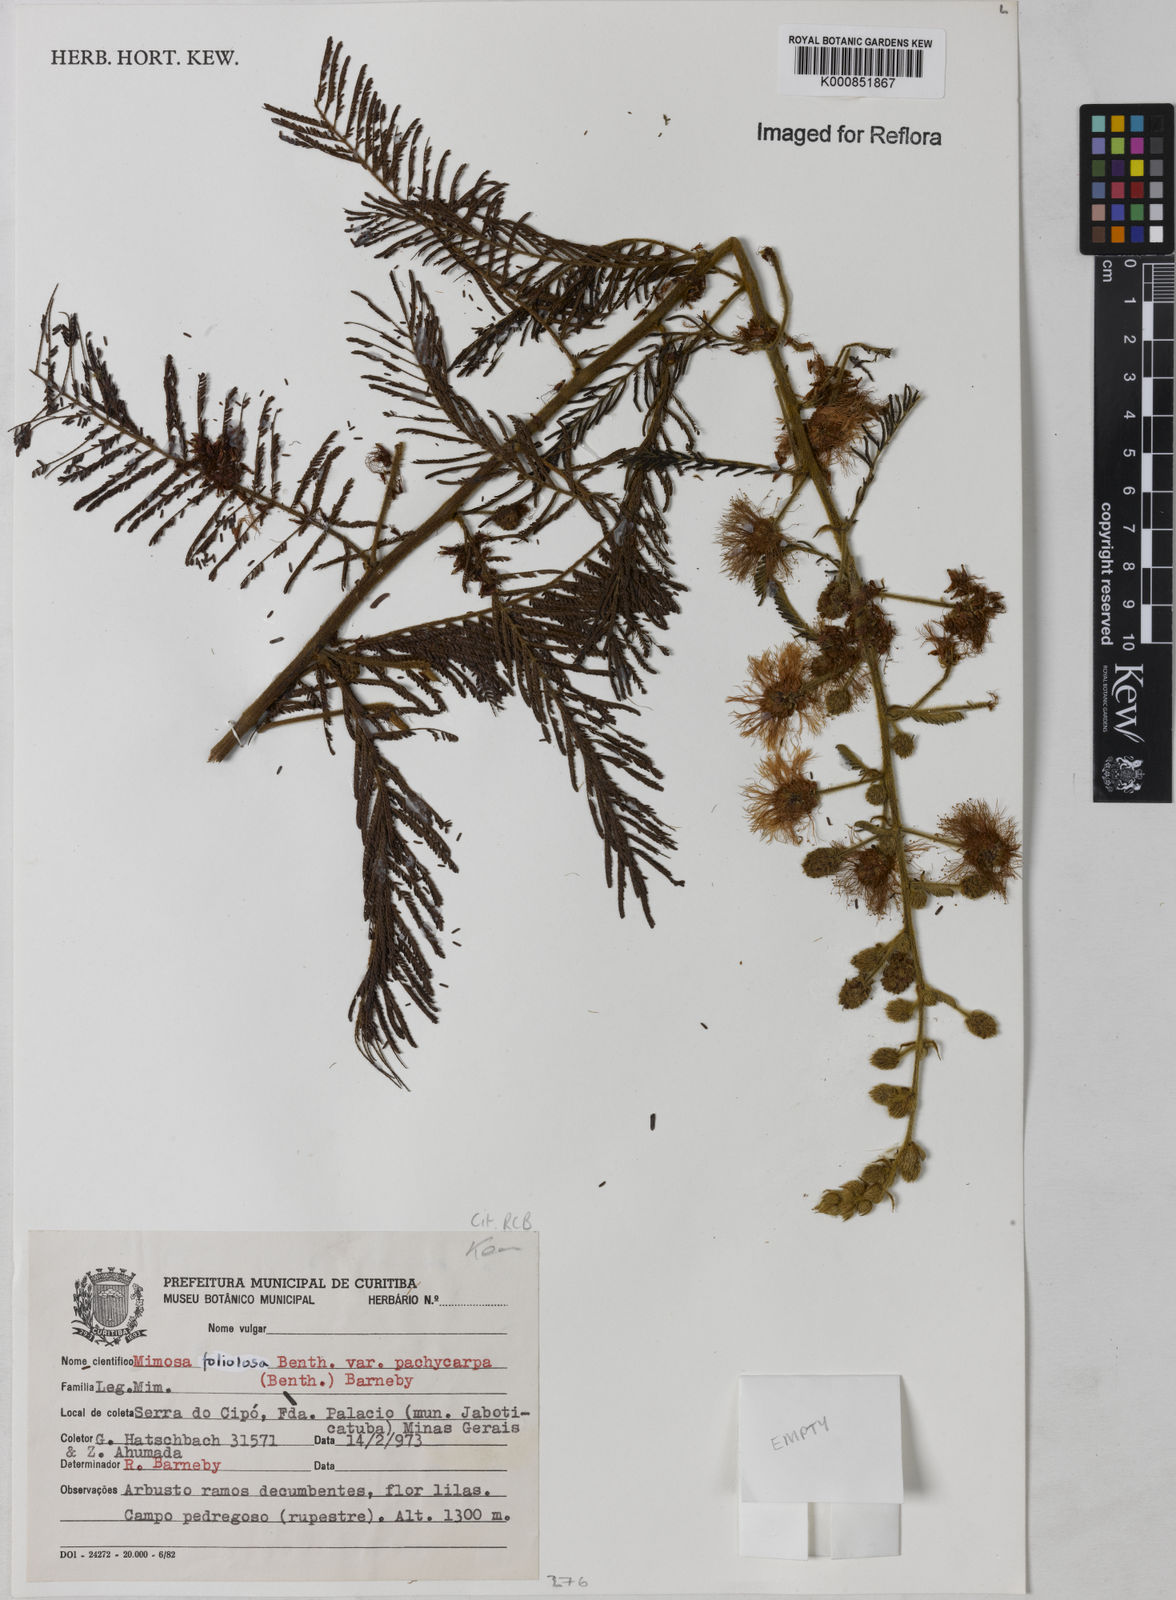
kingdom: Plantae
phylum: Tracheophyta
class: Magnoliopsida
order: Fabales
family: Fabaceae
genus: Mimosa
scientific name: Mimosa foliolosa
